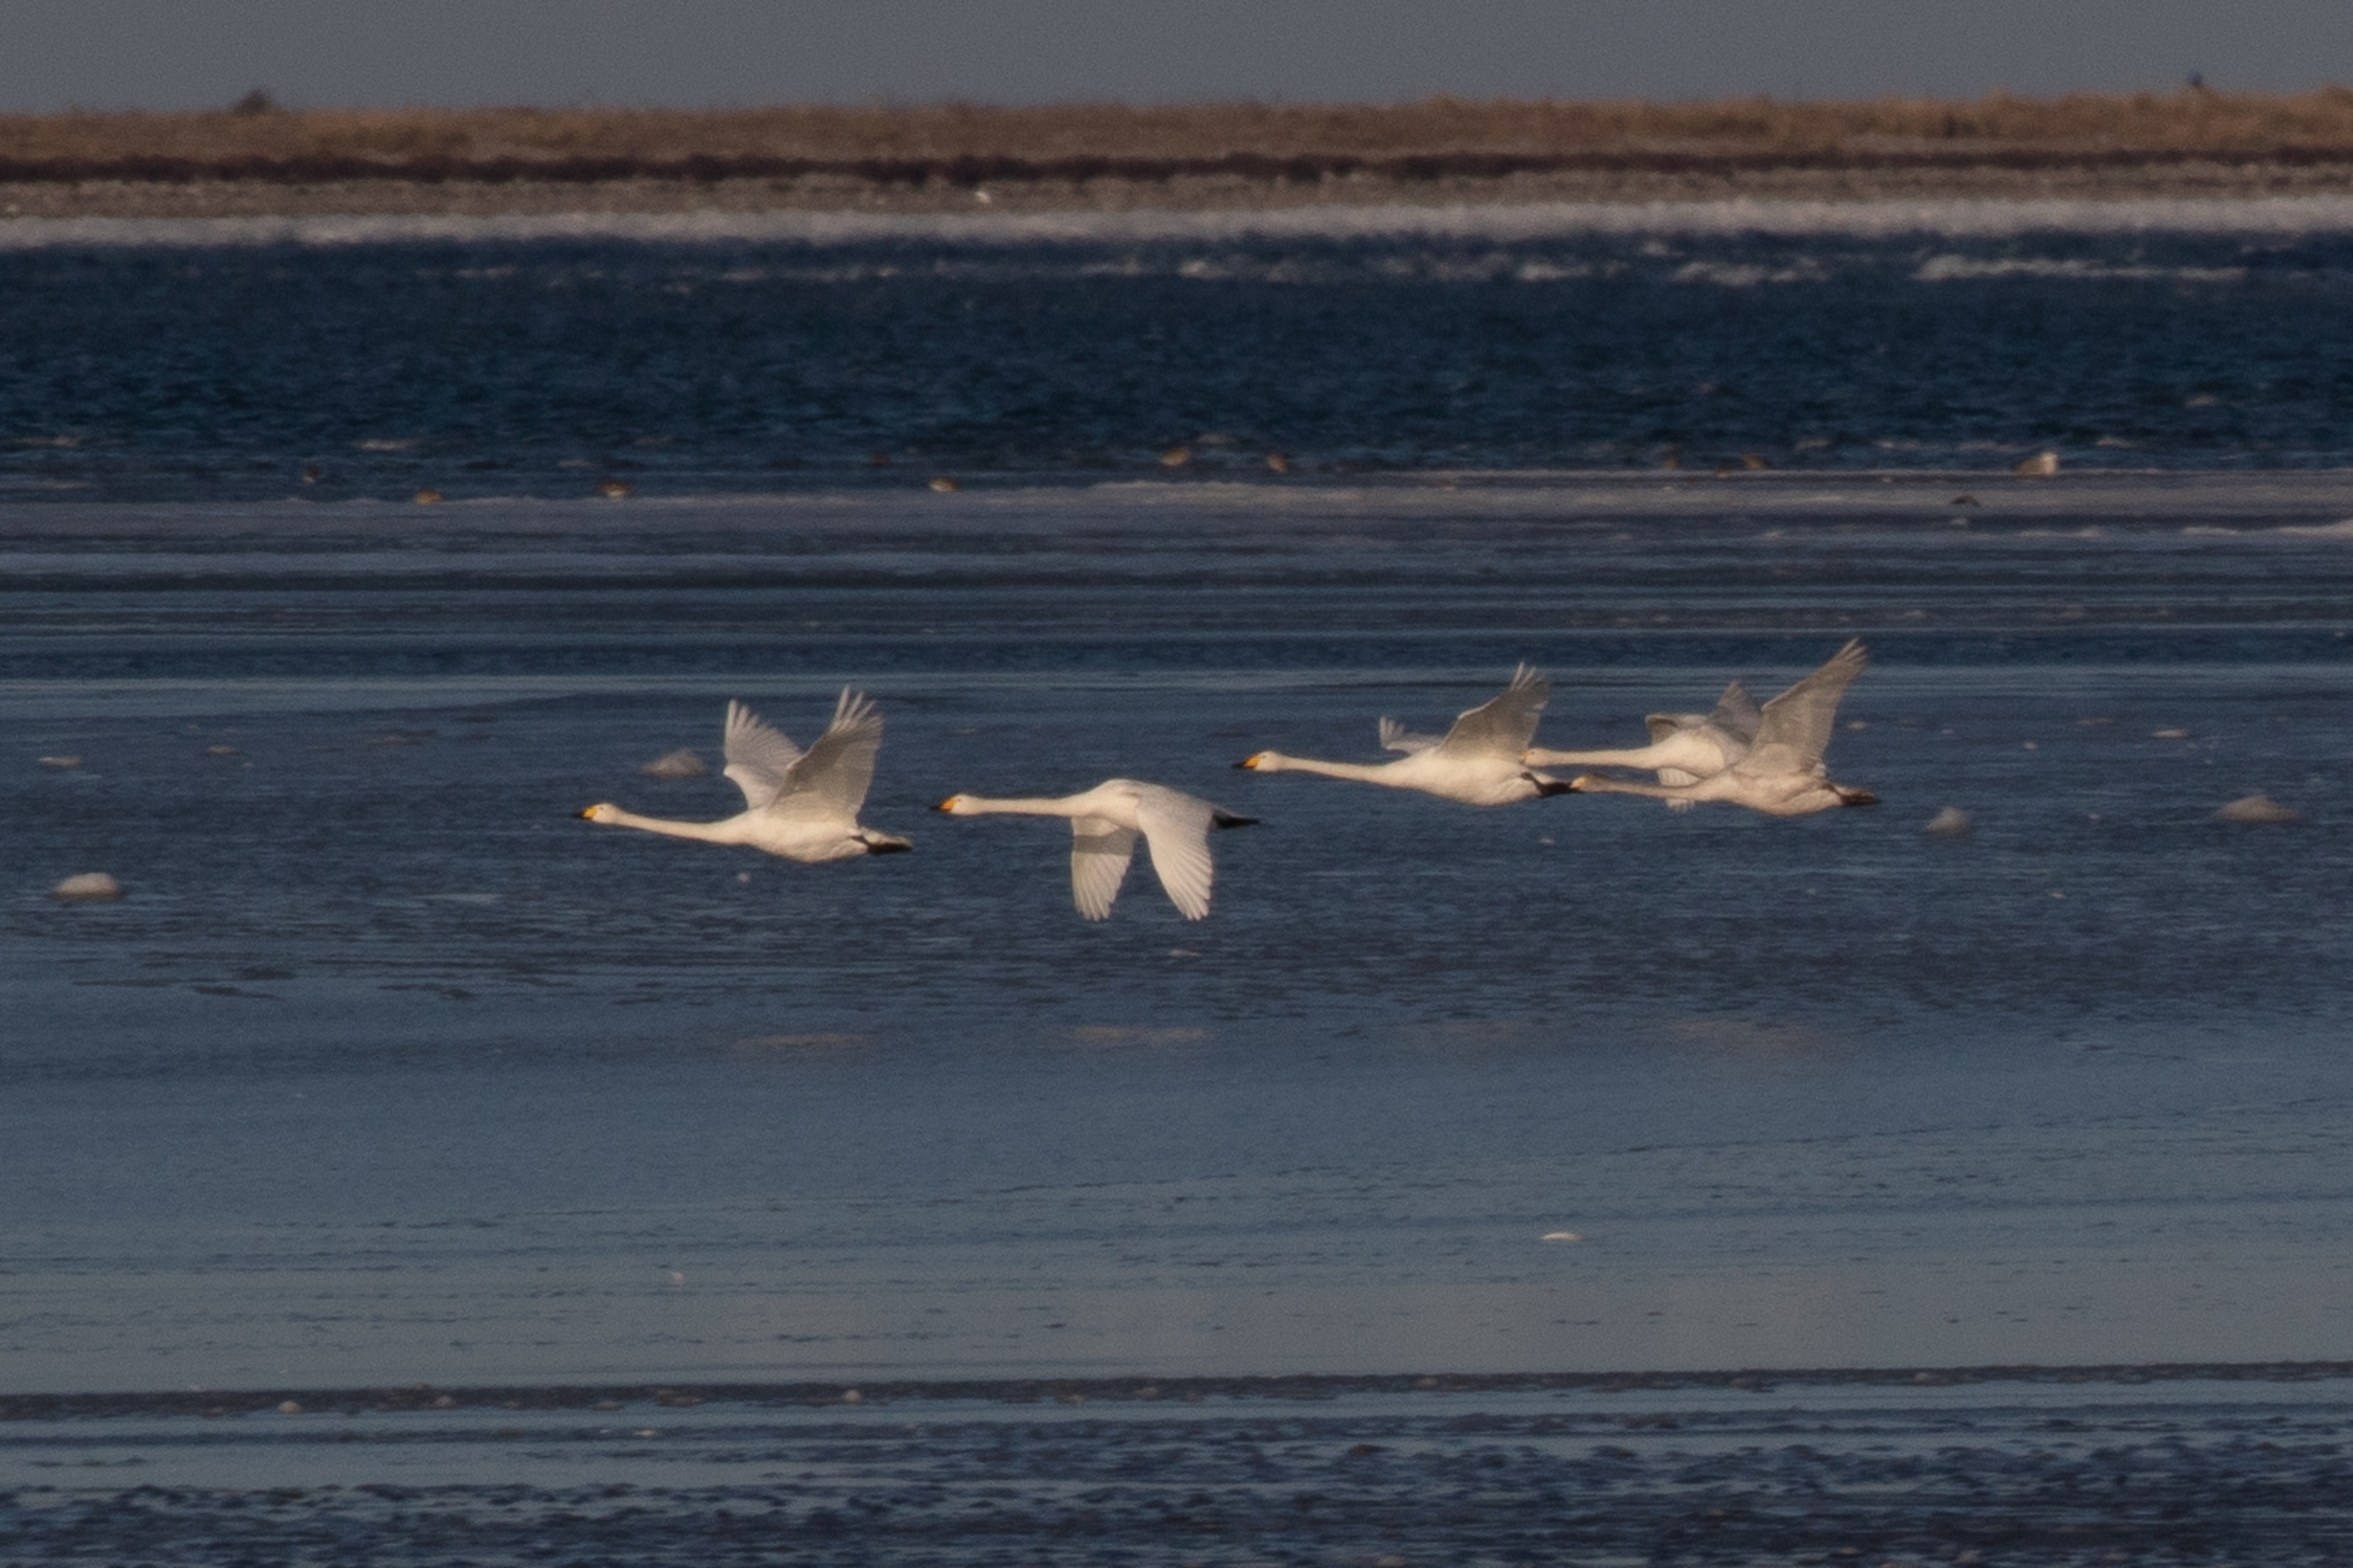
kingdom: Animalia
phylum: Chordata
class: Aves
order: Anseriformes
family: Anatidae
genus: Cygnus
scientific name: Cygnus cygnus
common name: Sangsvane
